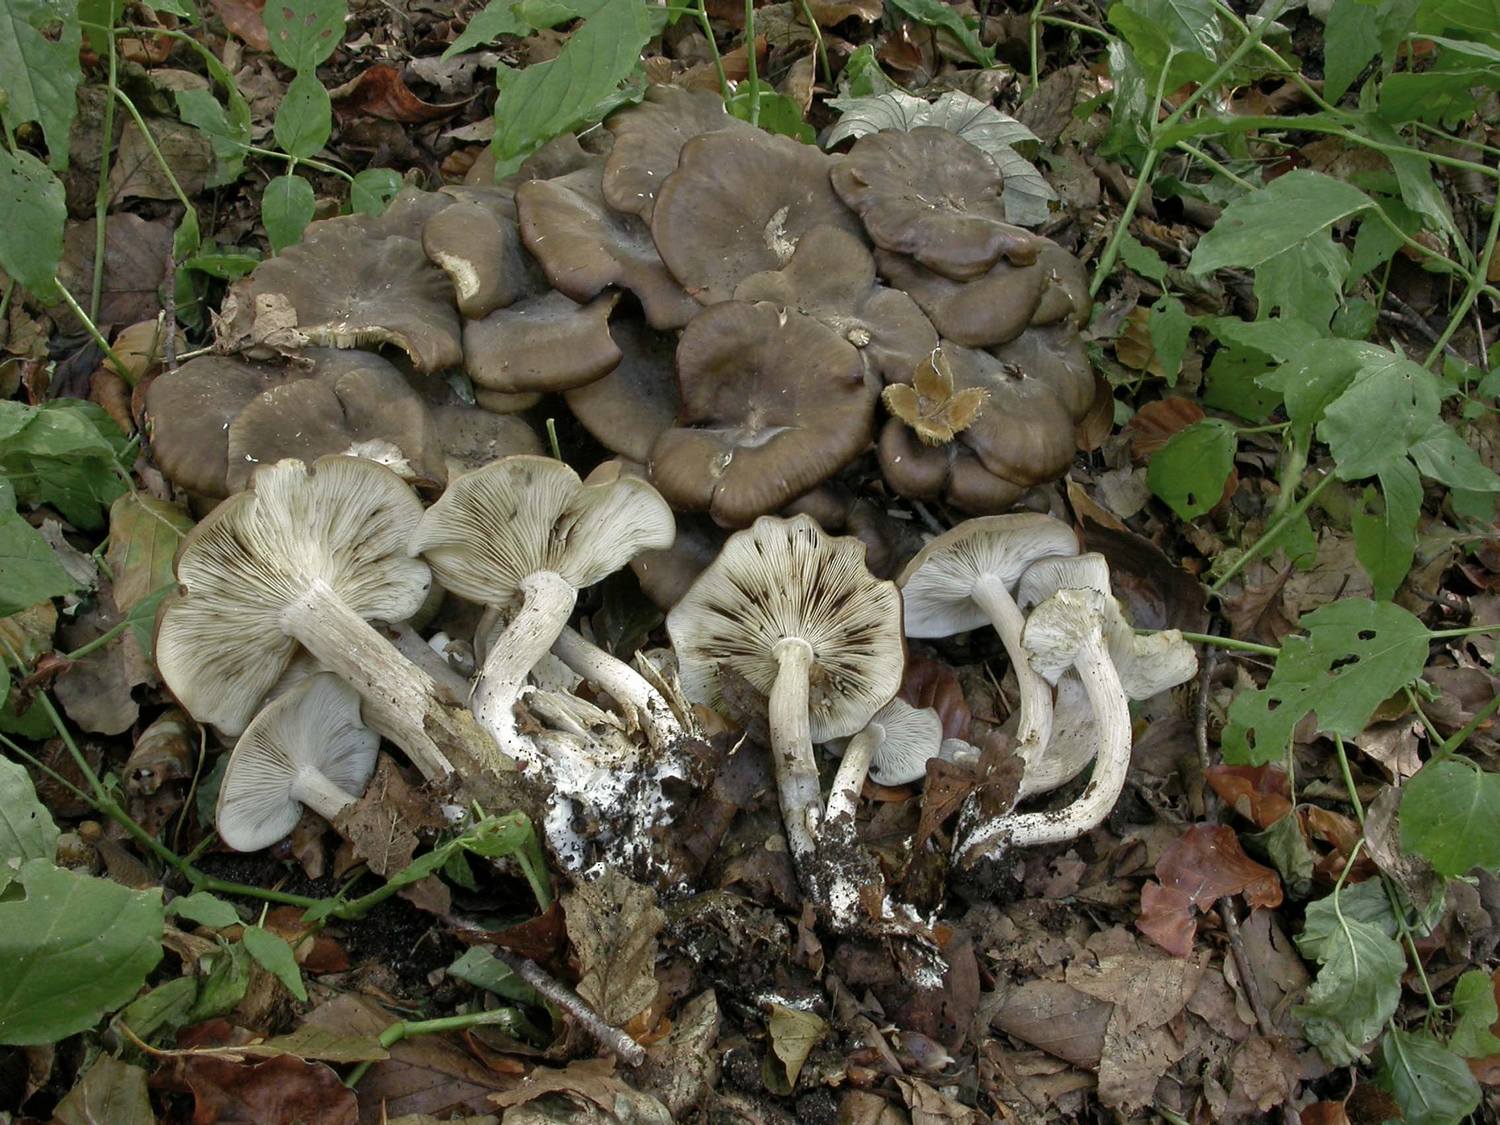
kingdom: Fungi
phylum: Basidiomycota
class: Agaricomycetes
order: Agaricales
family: Lyophyllaceae
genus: Lyophyllum
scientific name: Lyophyllum decastes
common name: røggrå gråblad
